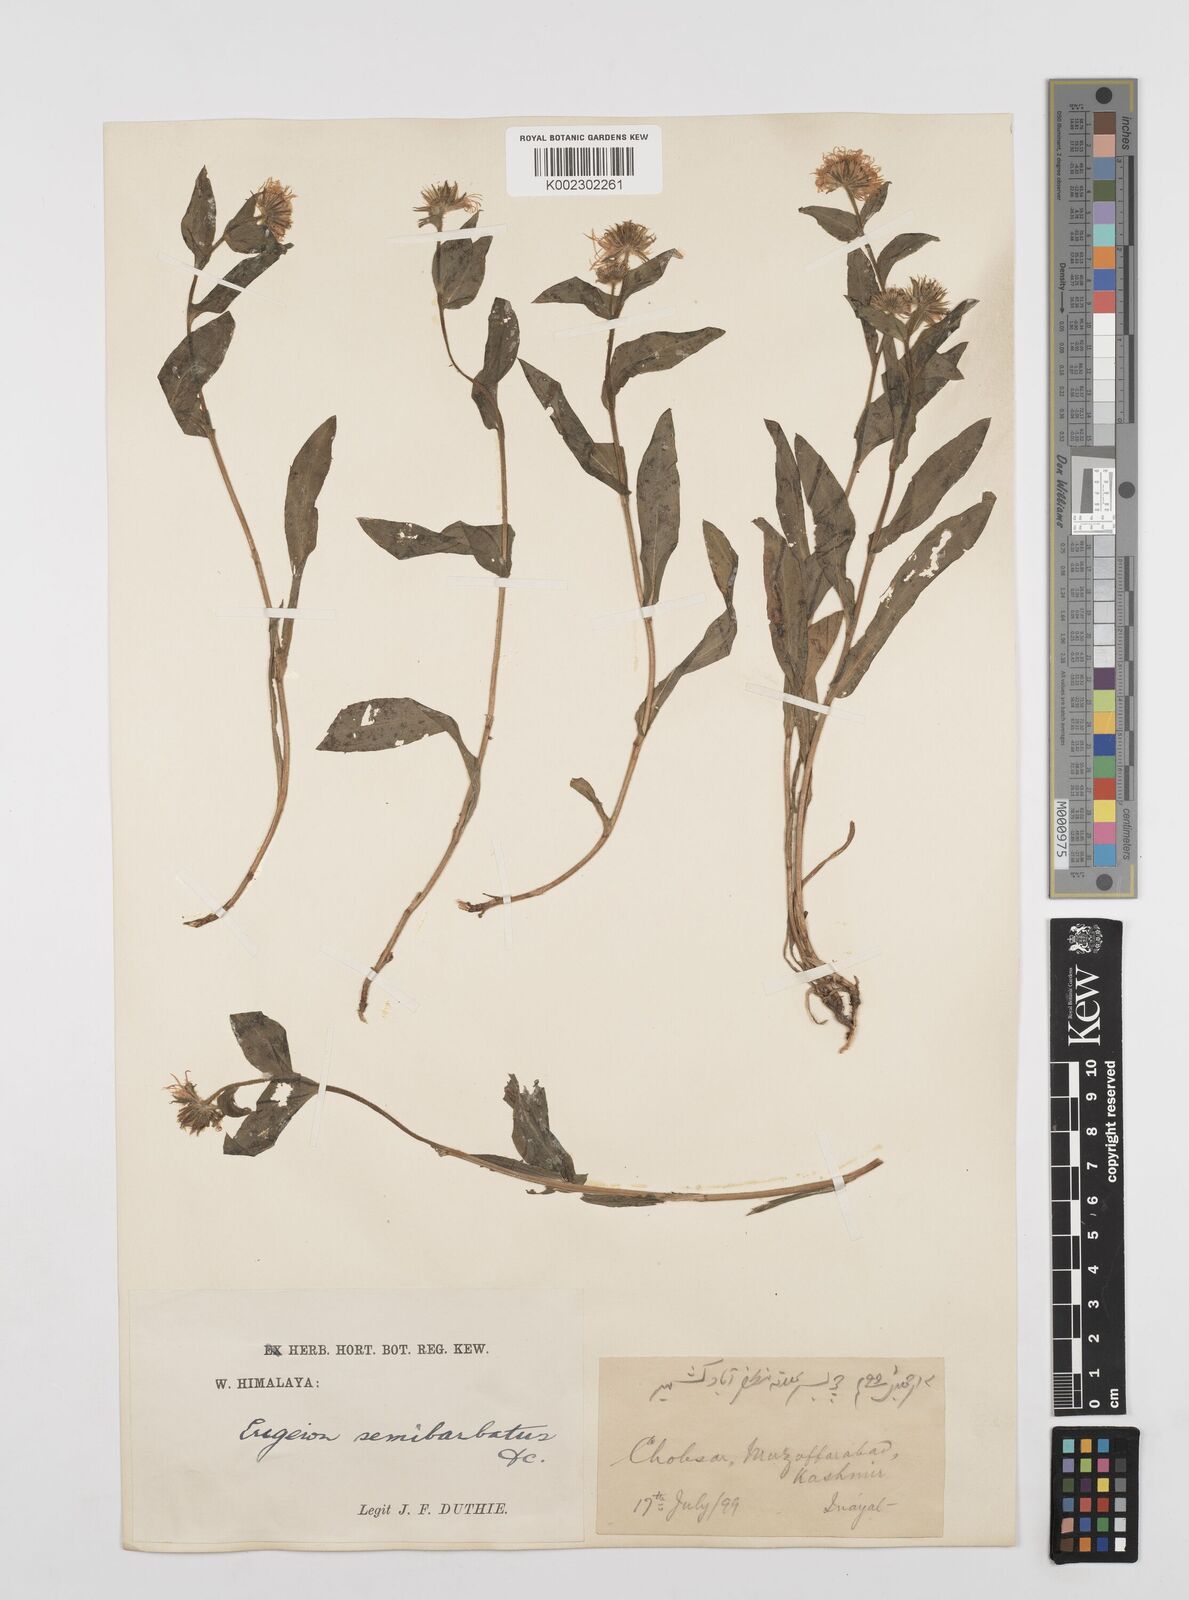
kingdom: Plantae
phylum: Tracheophyta
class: Magnoliopsida
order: Asterales
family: Asteraceae
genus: Erigeron
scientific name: Erigeron multiradiatus
